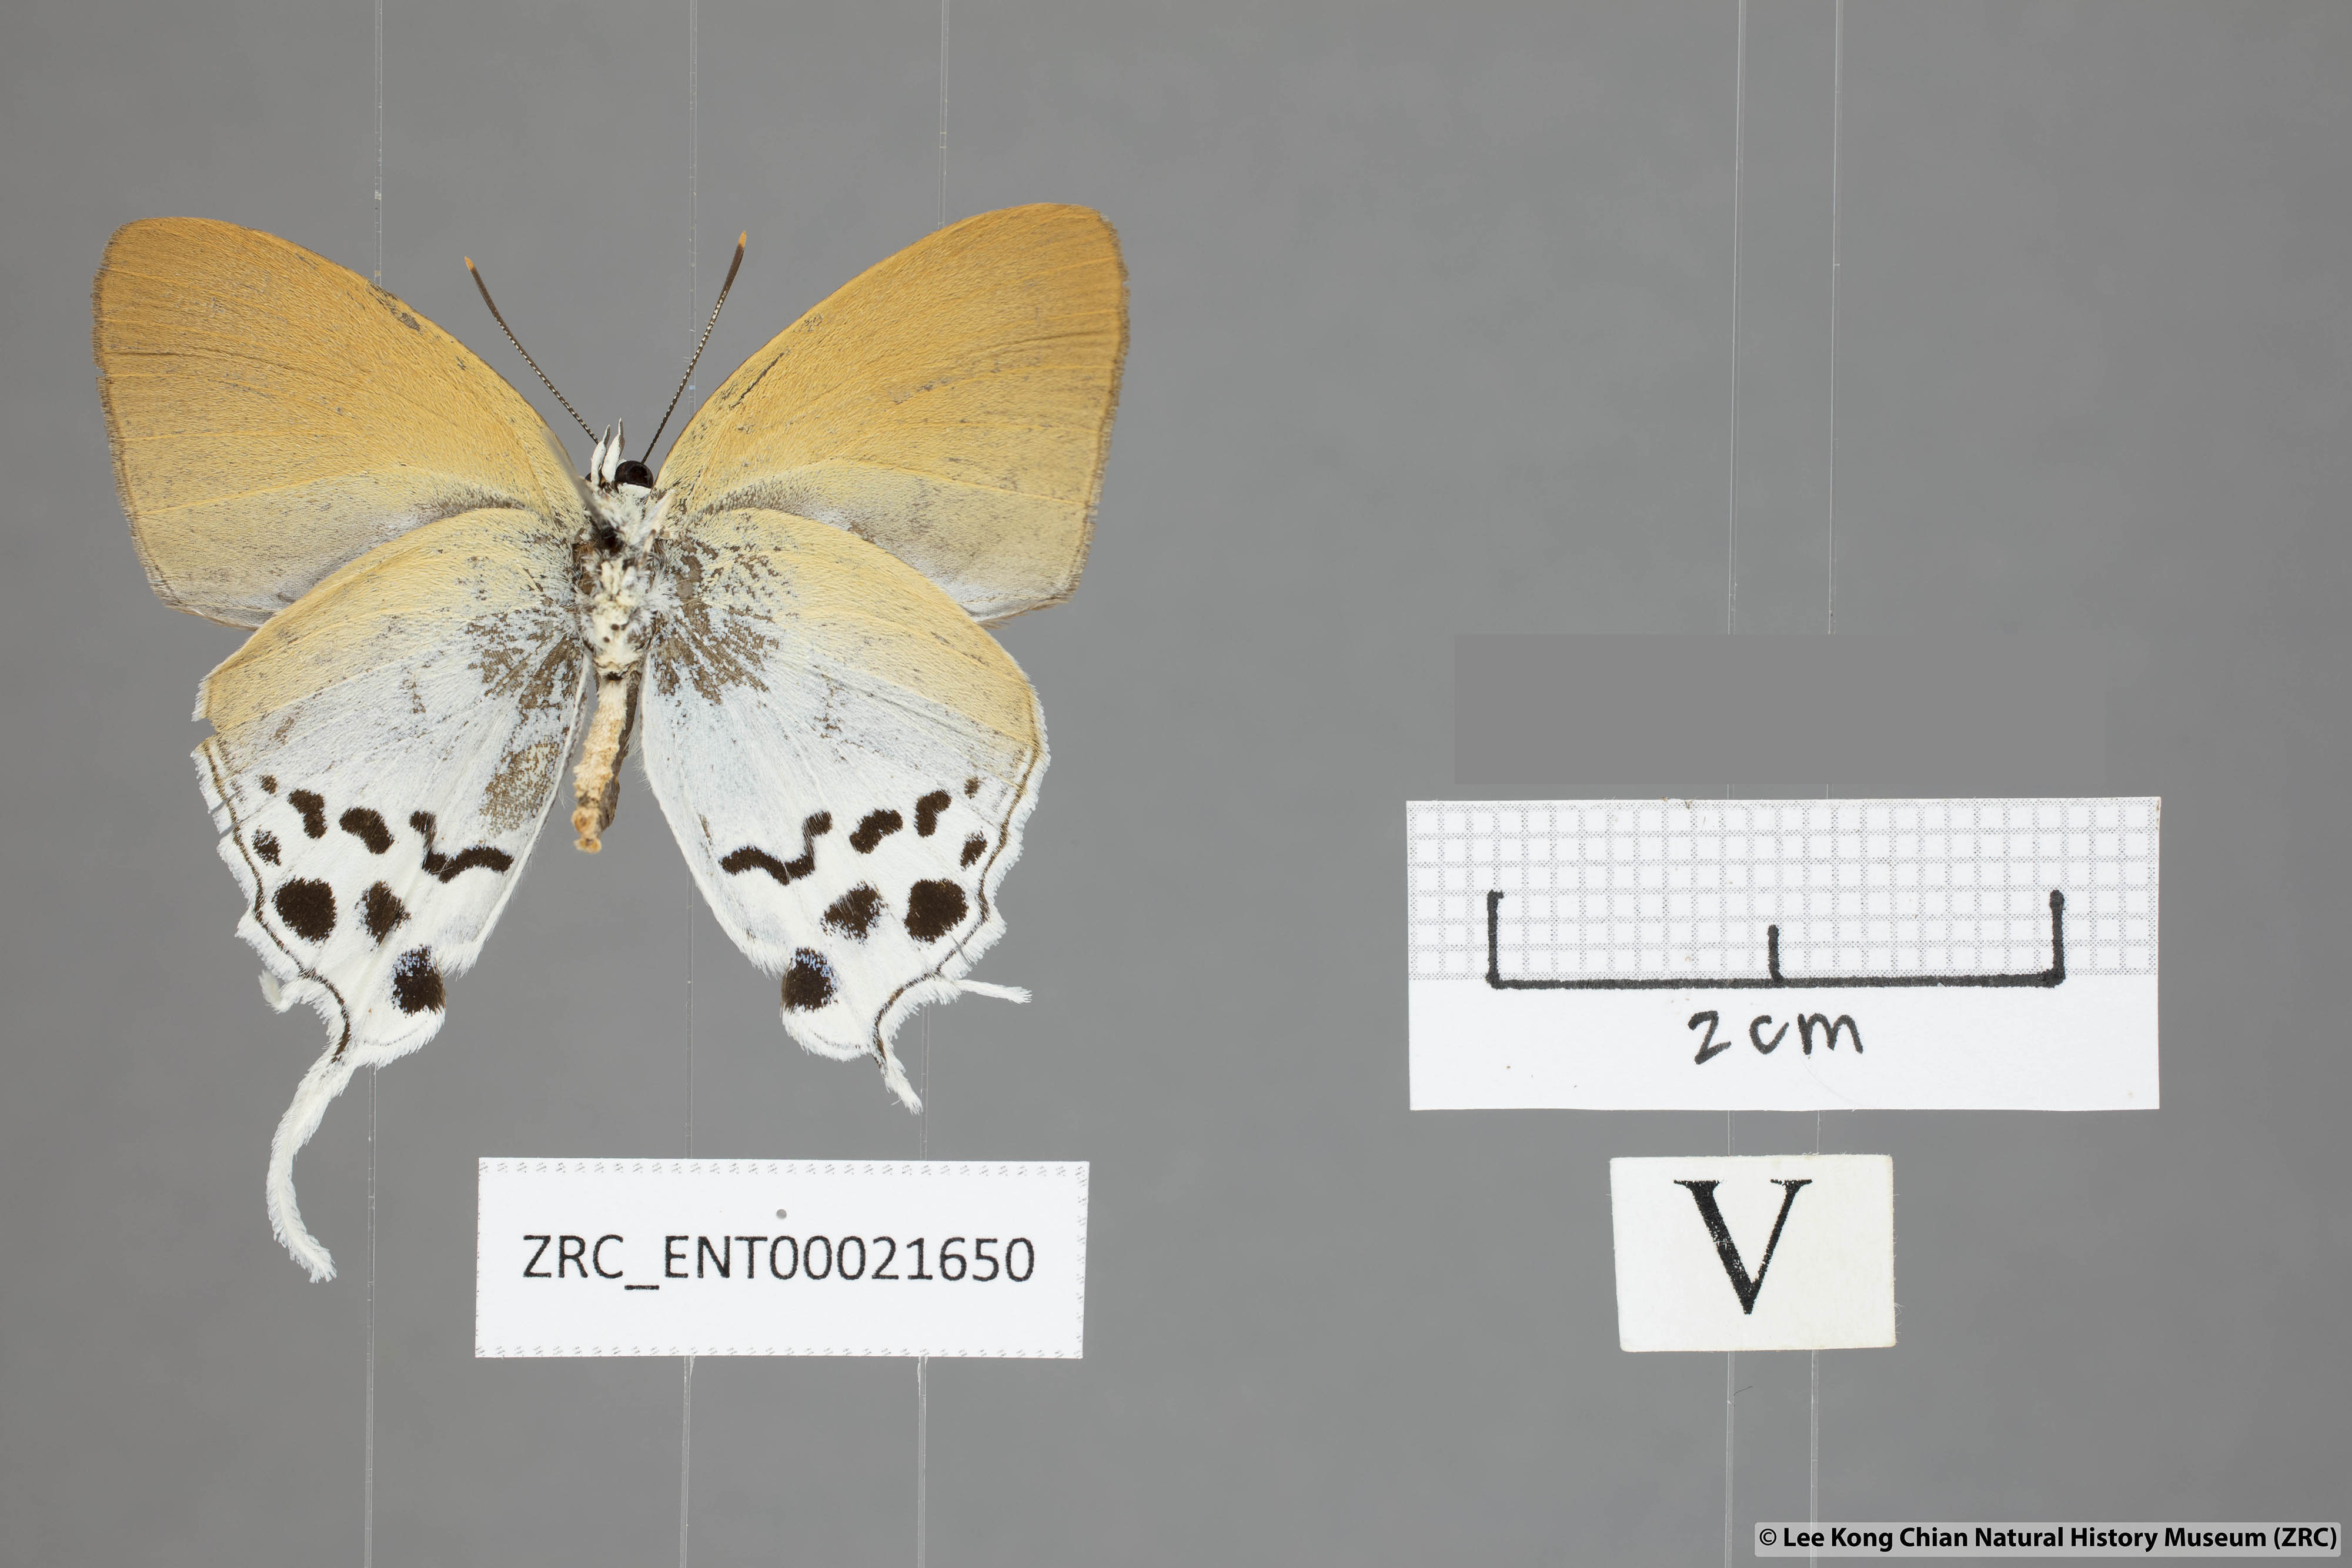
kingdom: Animalia
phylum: Arthropoda
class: Insecta
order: Lepidoptera
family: Lycaenidae
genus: Thrix
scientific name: Thrix
